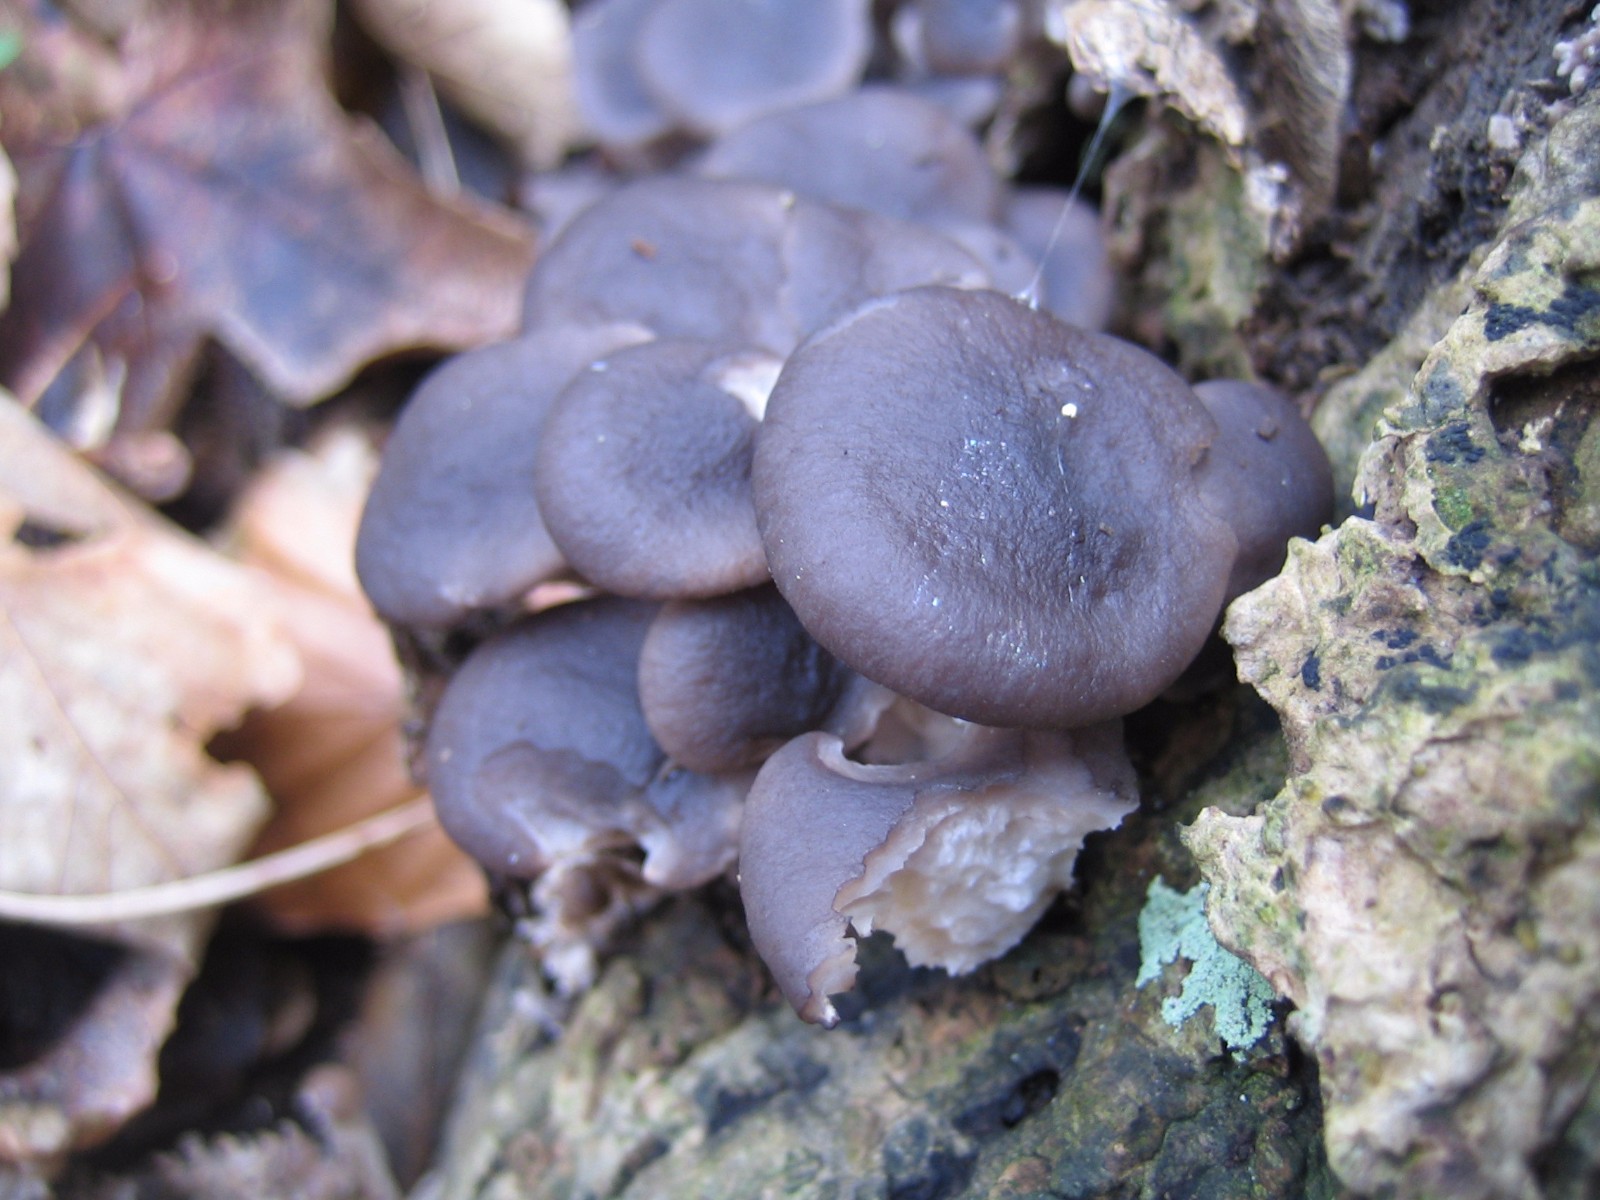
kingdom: Fungi
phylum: Basidiomycota
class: Agaricomycetes
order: Agaricales
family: Pleurotaceae
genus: Pleurotus
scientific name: Pleurotus ostreatus
